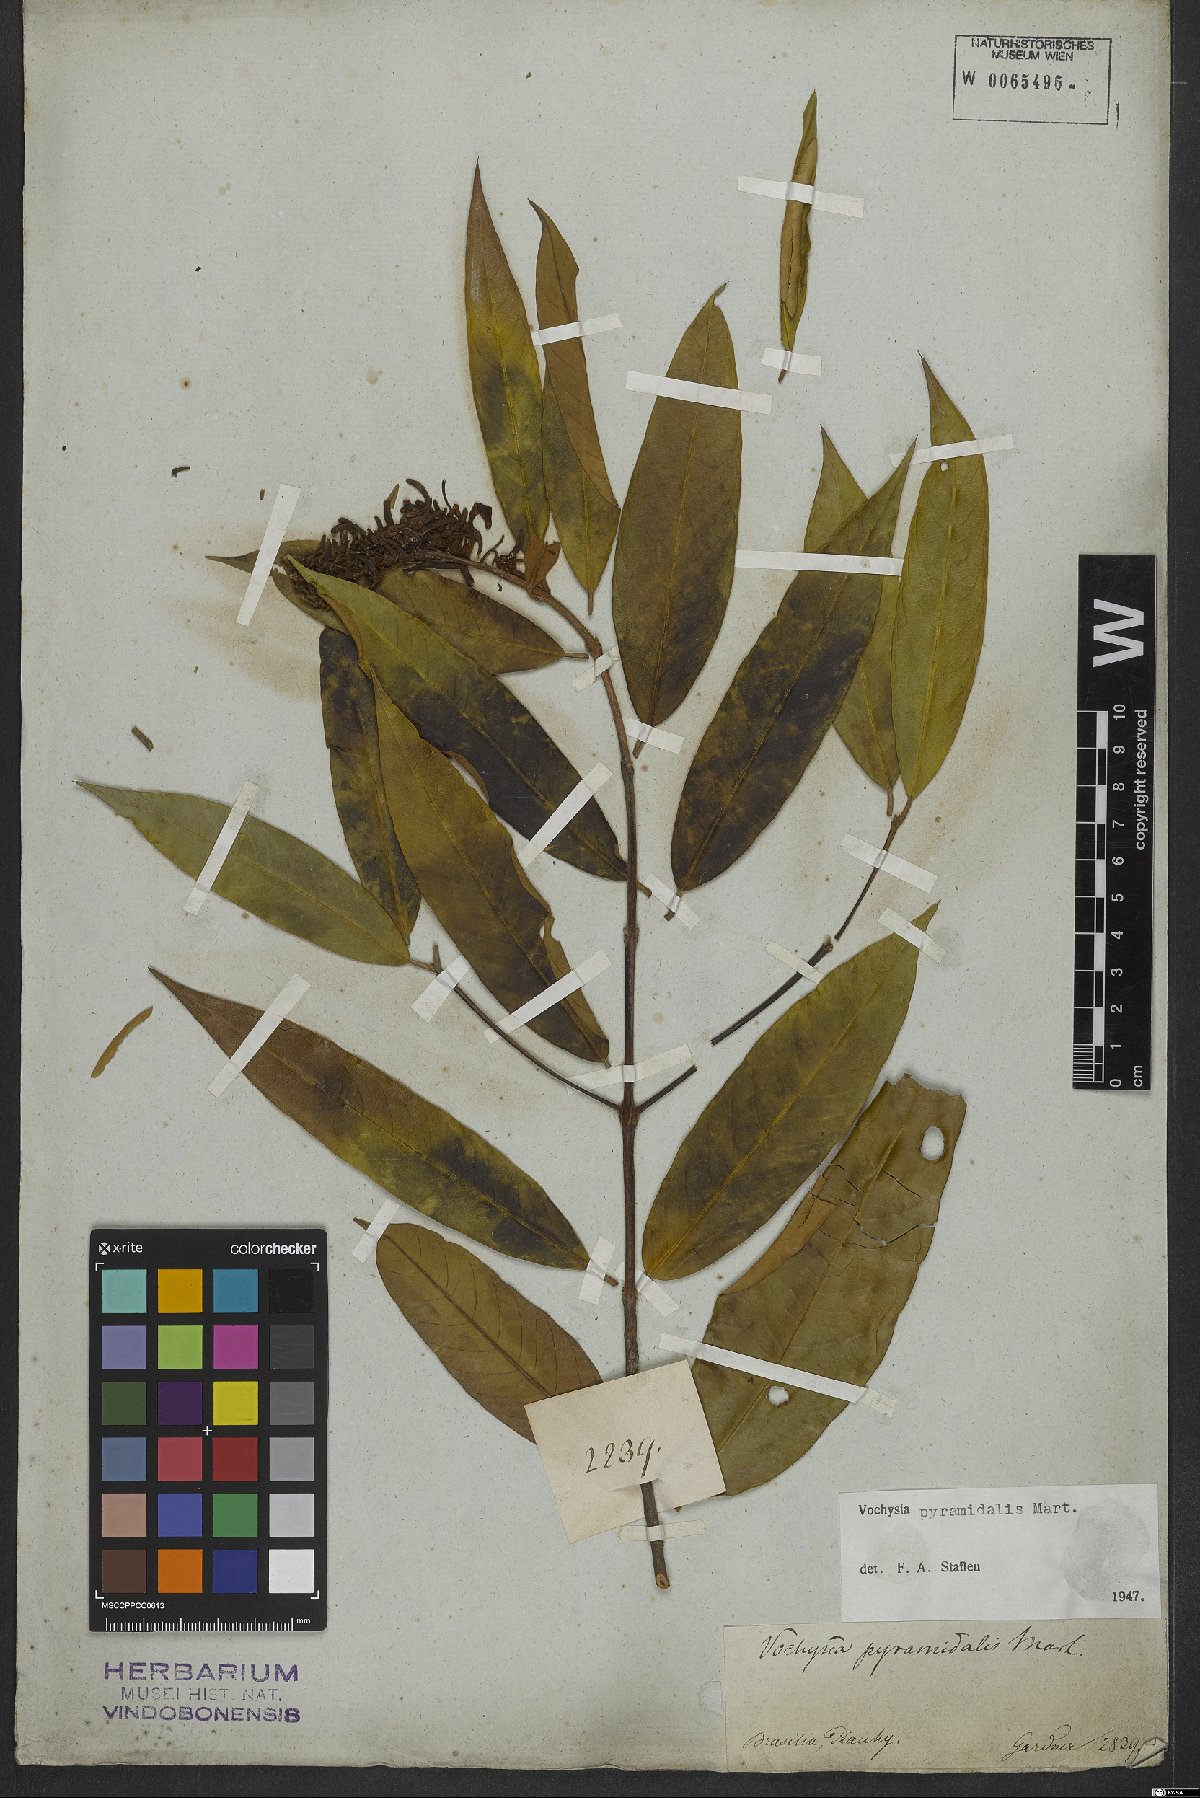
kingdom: Plantae
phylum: Tracheophyta
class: Magnoliopsida
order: Myrtales
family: Vochysiaceae
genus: Vochysia
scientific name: Vochysia pyramidalis
